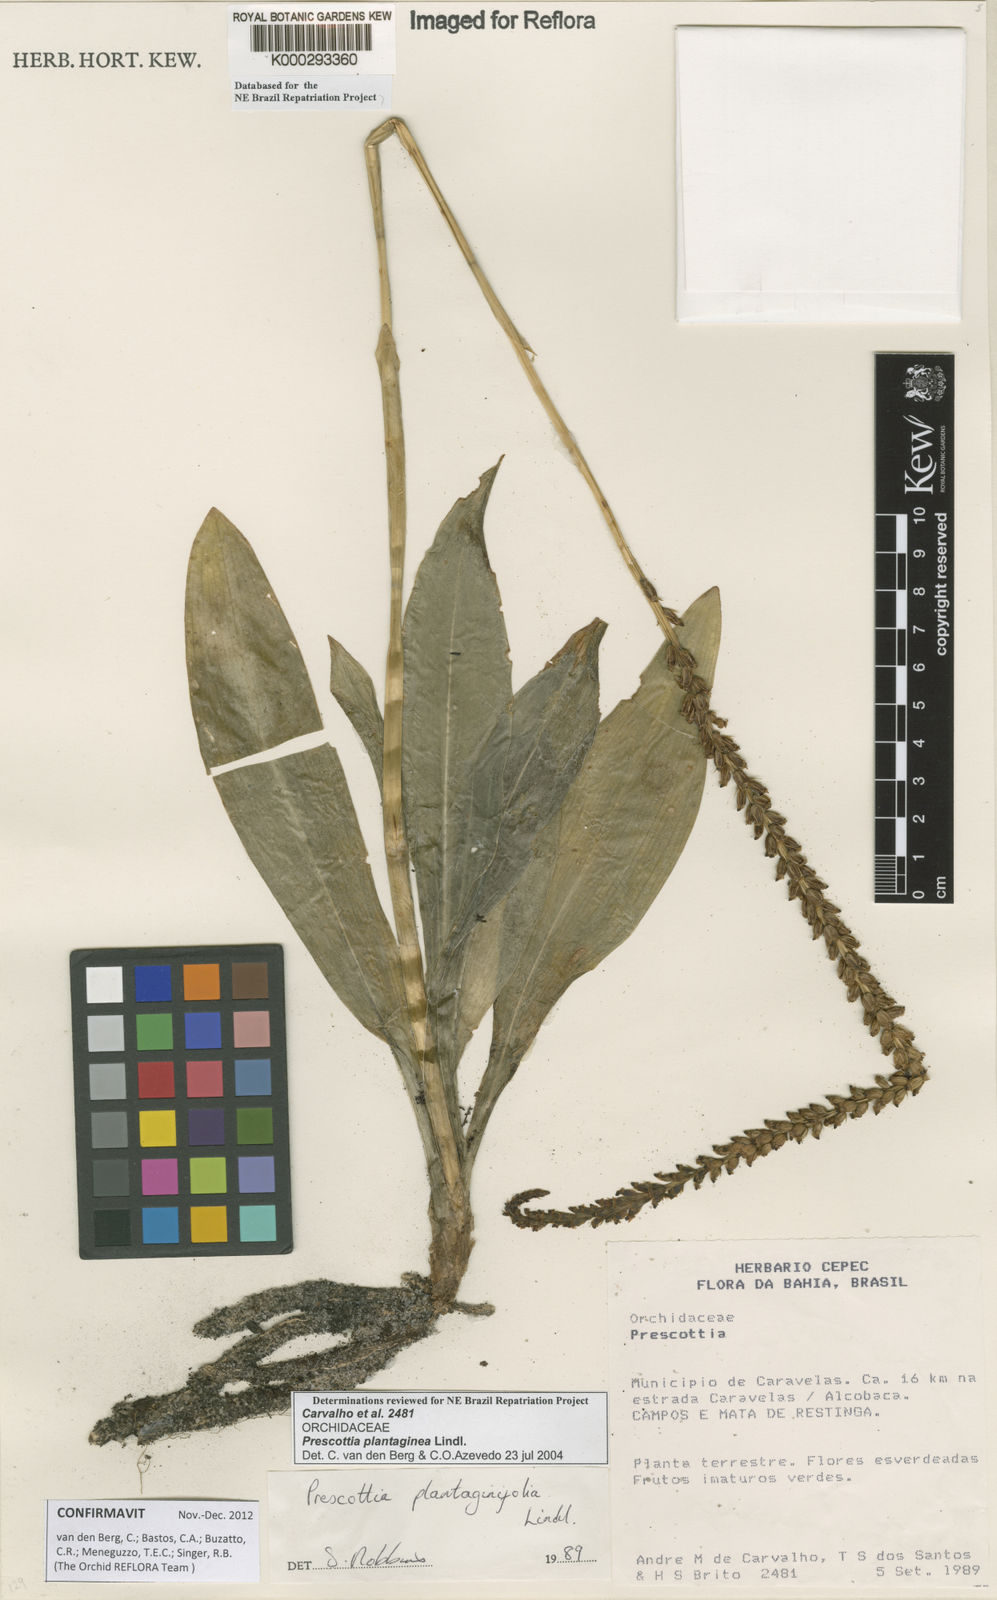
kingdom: Plantae
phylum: Tracheophyta
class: Liliopsida
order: Asparagales
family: Orchidaceae
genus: Prescottia
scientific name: Prescottia
